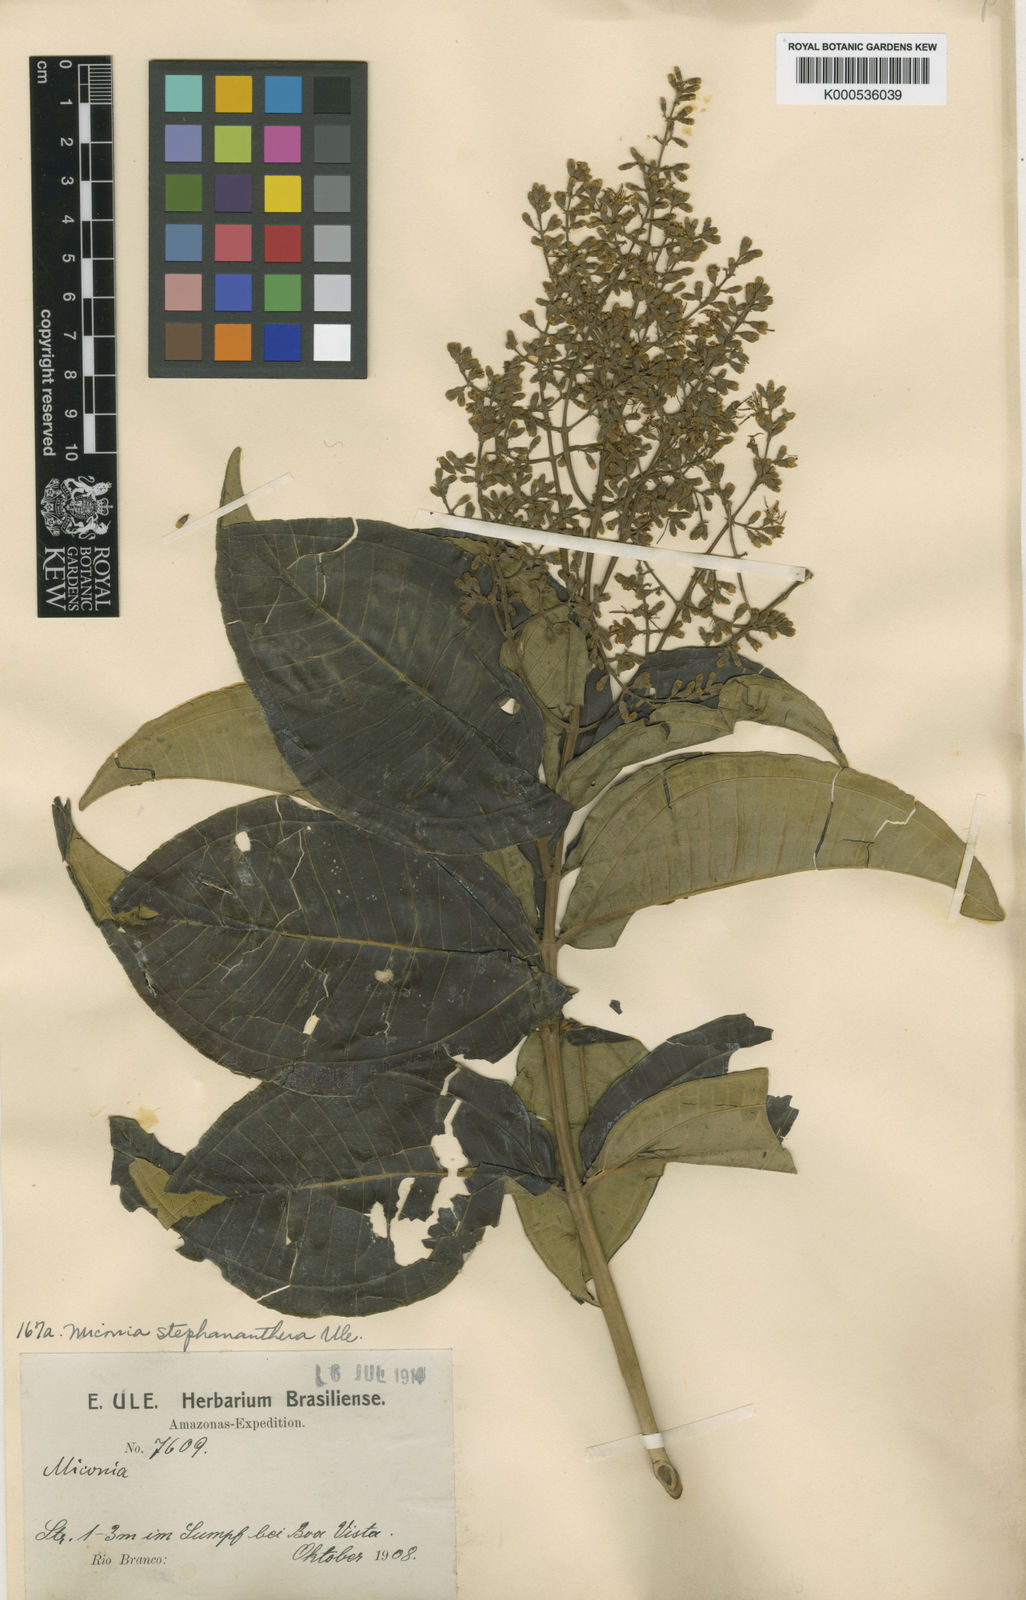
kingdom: Plantae
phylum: Tracheophyta
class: Magnoliopsida
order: Myrtales
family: Melastomataceae
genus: Miconia
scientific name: Miconia stephananthera
